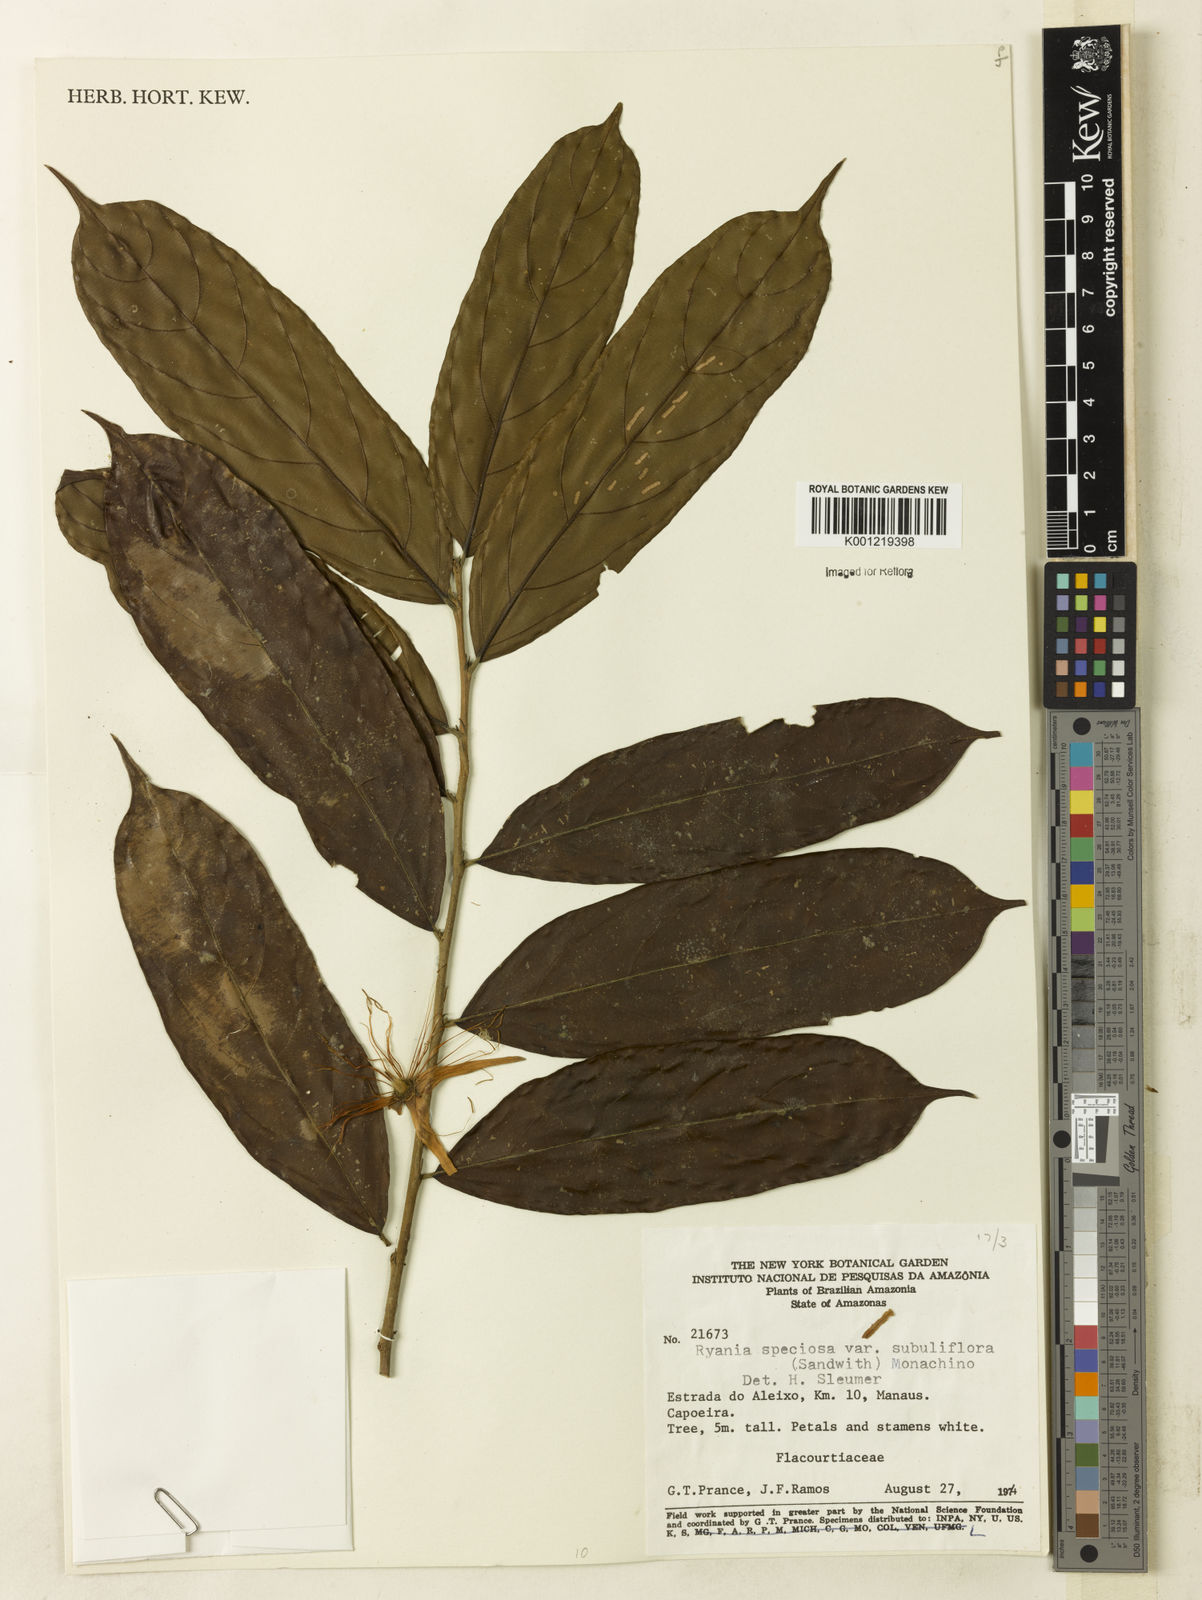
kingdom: Plantae
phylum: Tracheophyta
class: Magnoliopsida
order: Malpighiales
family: Salicaceae
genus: Ryania
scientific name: Ryania speciosa
